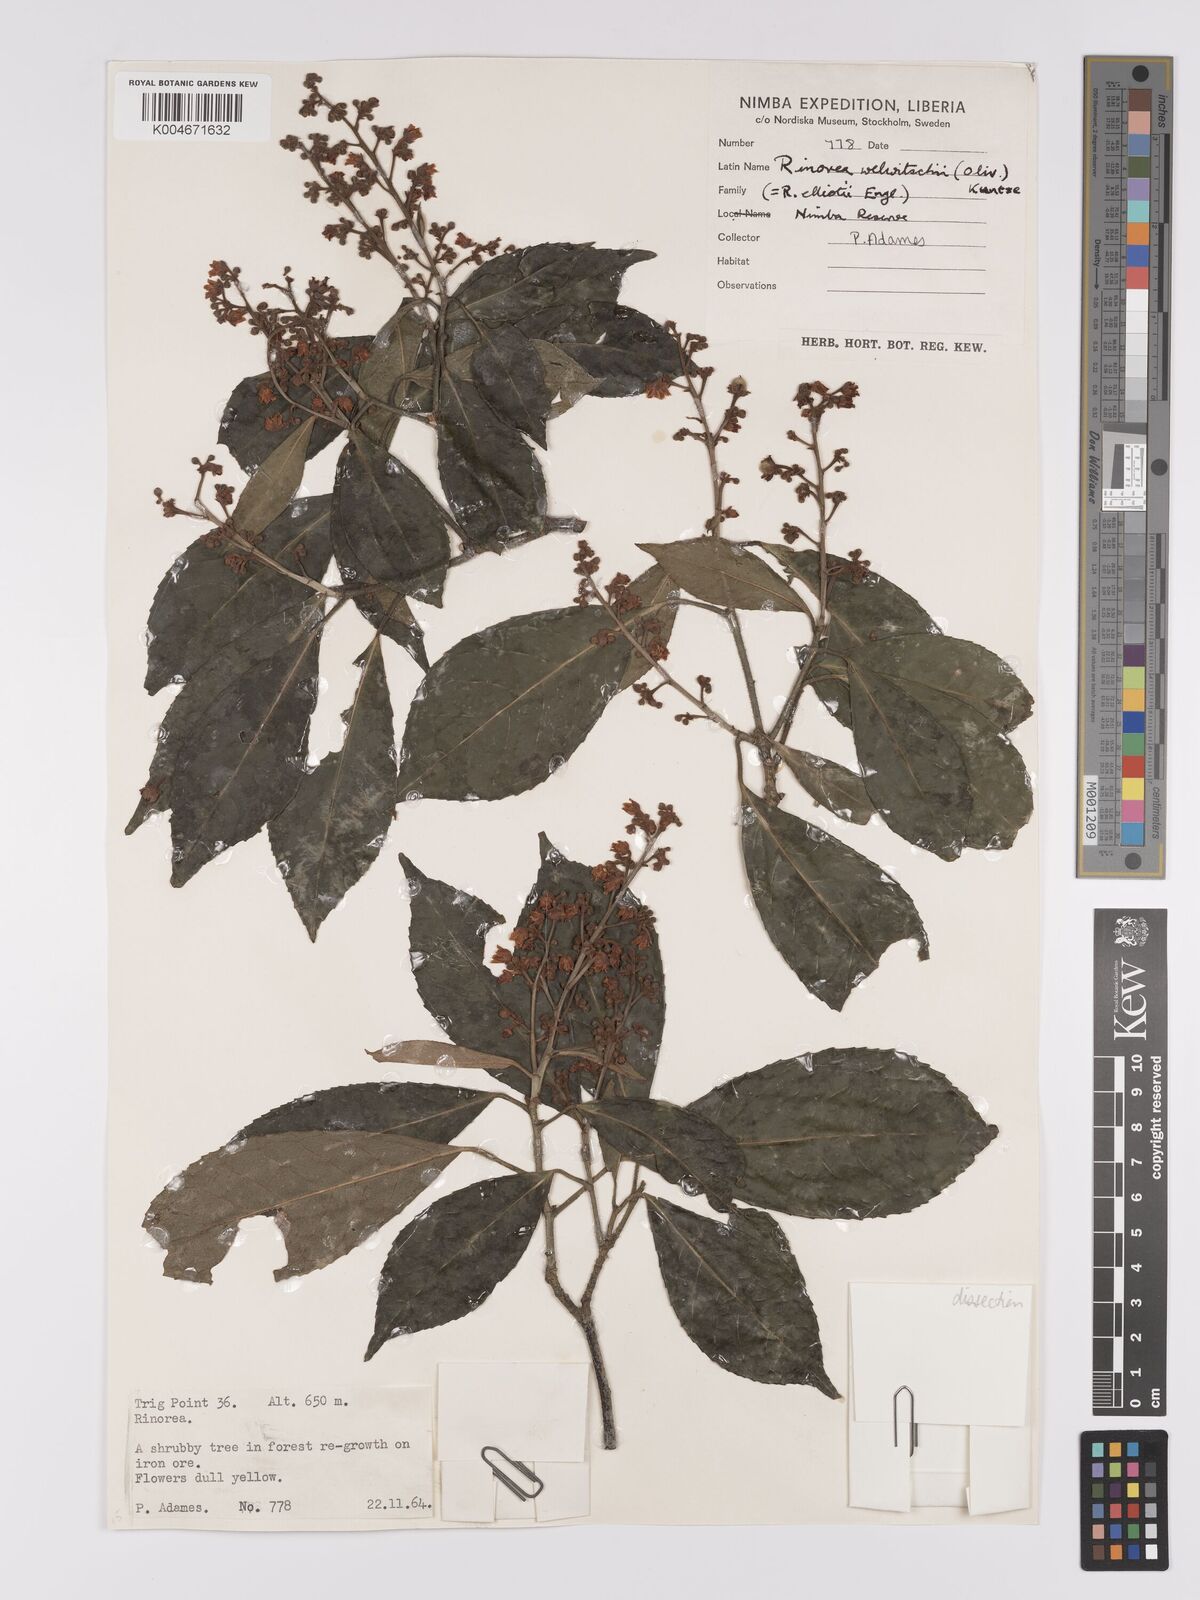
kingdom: Plantae
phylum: Tracheophyta
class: Magnoliopsida
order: Malpighiales
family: Violaceae
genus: Rinorea
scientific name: Rinorea welwitschii
